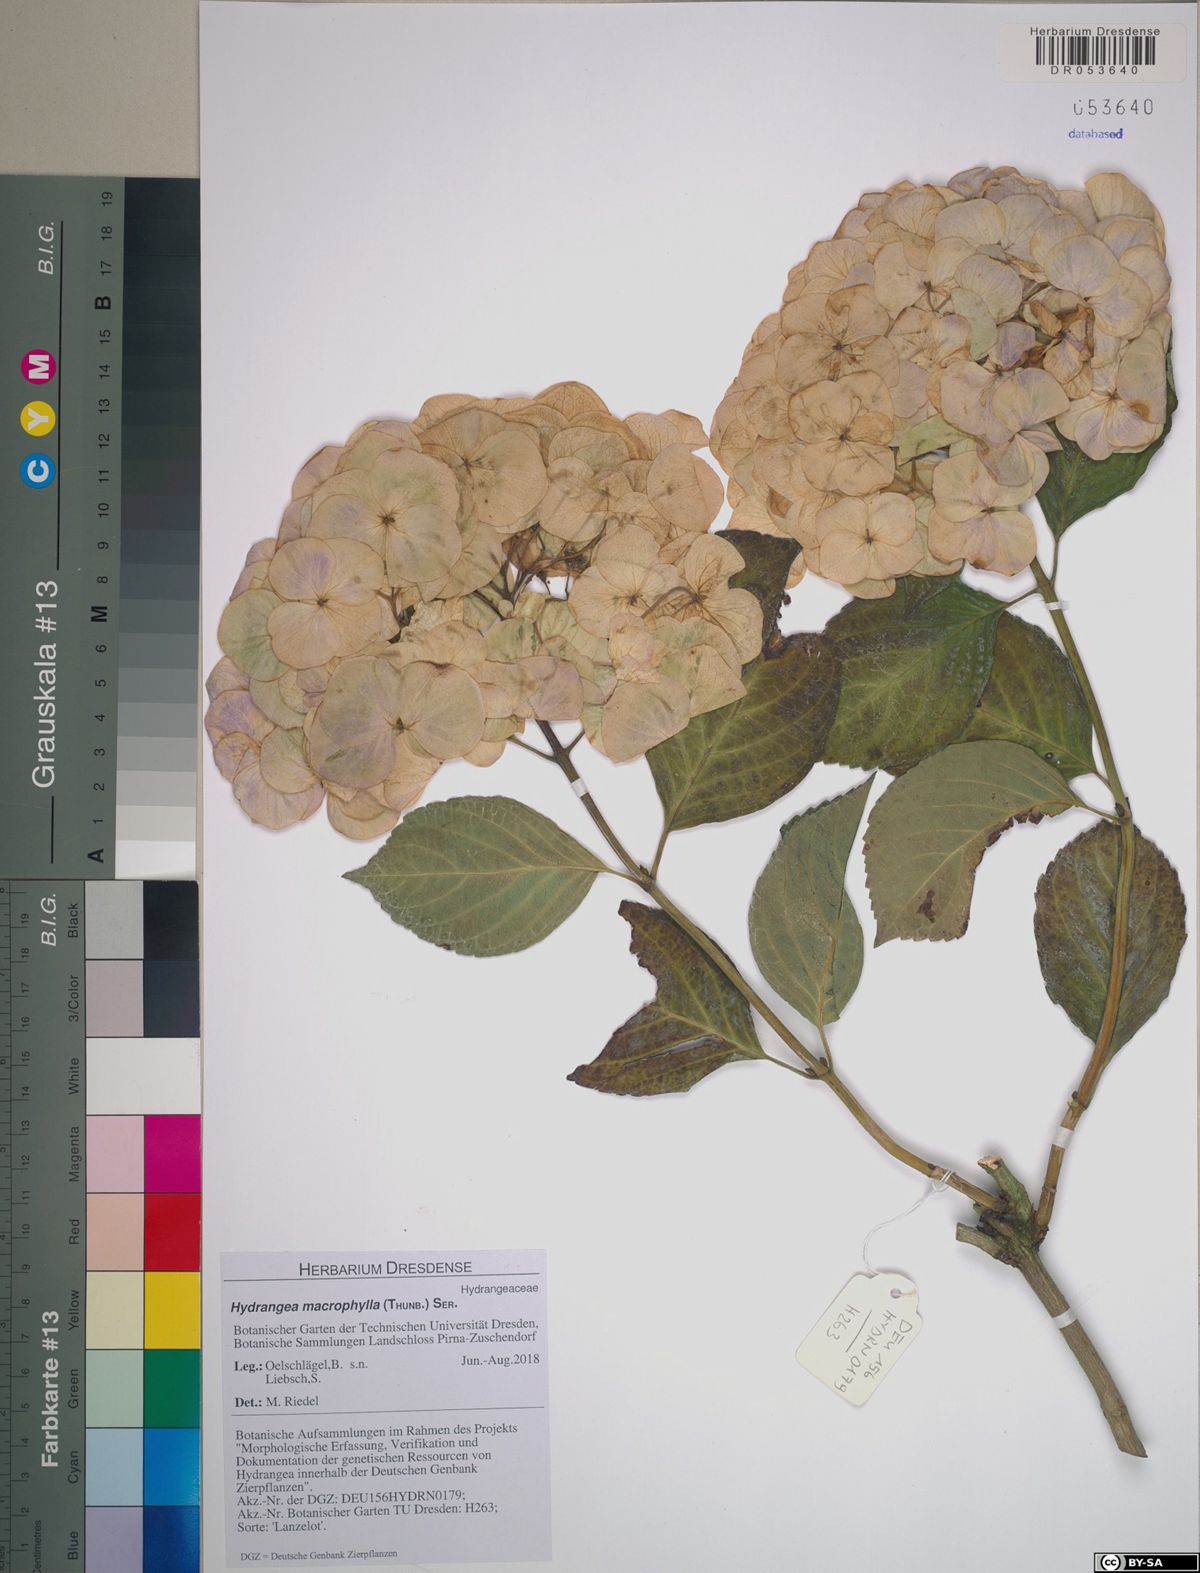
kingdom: Plantae
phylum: Tracheophyta
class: Magnoliopsida
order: Cornales
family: Hydrangeaceae
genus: Hydrangea
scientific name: Hydrangea macrophylla
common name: Hydrangea
